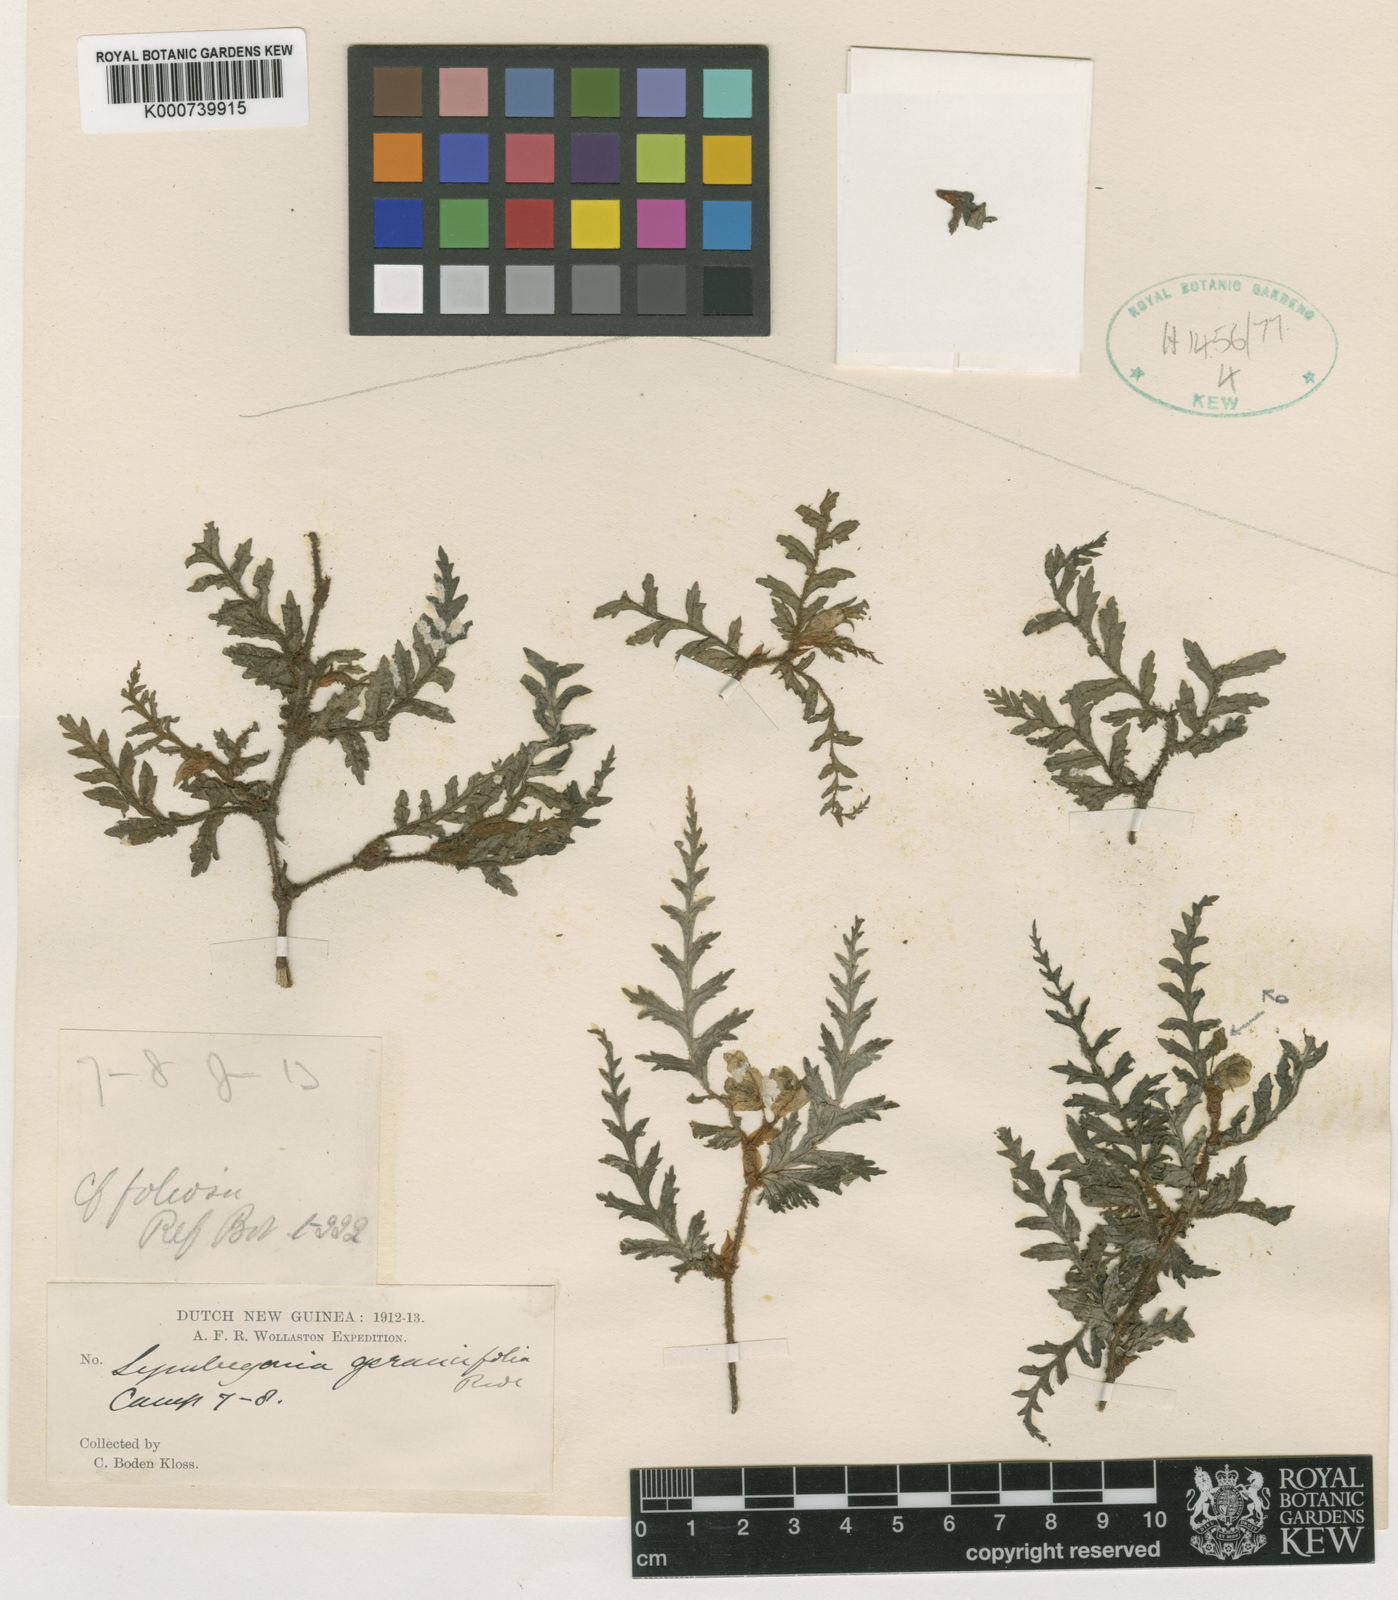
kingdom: Plantae
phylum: Tracheophyta
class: Magnoliopsida
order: Cucurbitales
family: Begoniaceae
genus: Begonia
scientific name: Begonia symgeraniifolia
